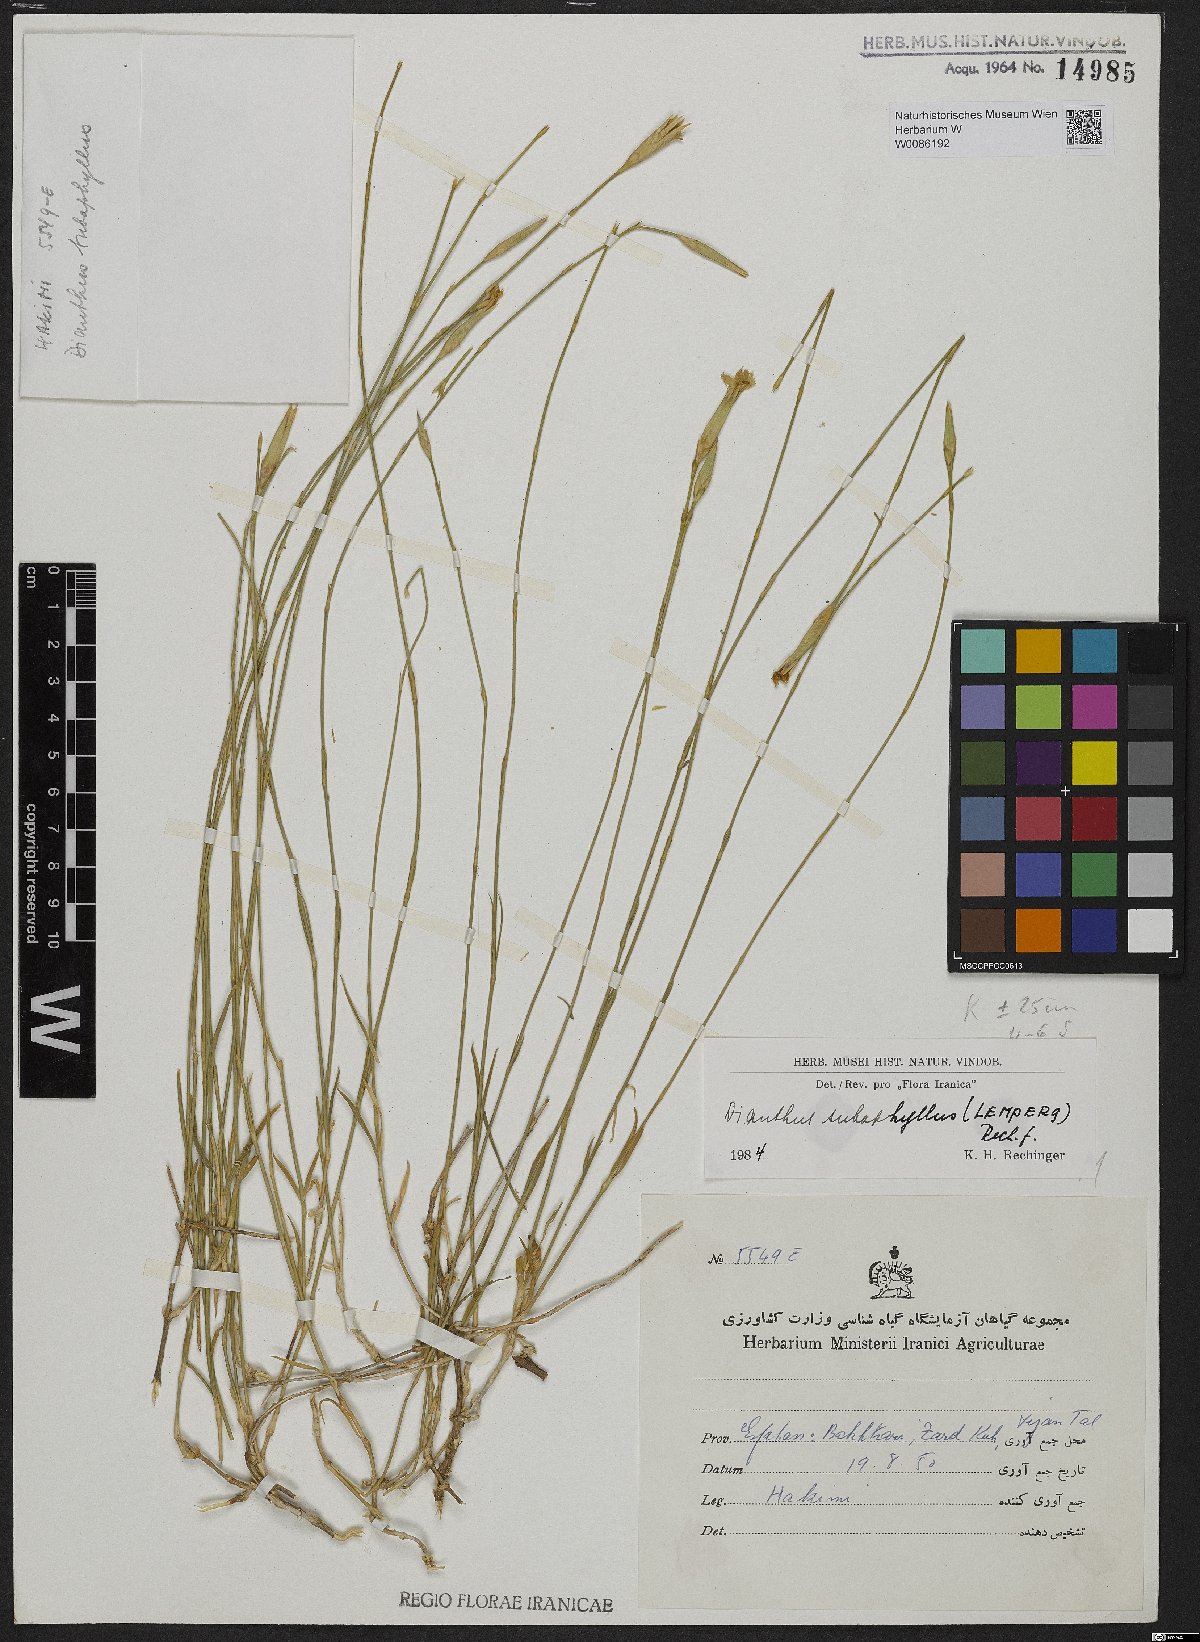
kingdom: Plantae
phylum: Tracheophyta
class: Magnoliopsida
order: Caryophyllales
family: Caryophyllaceae
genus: Dianthus
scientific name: Dianthus subaphyllus
